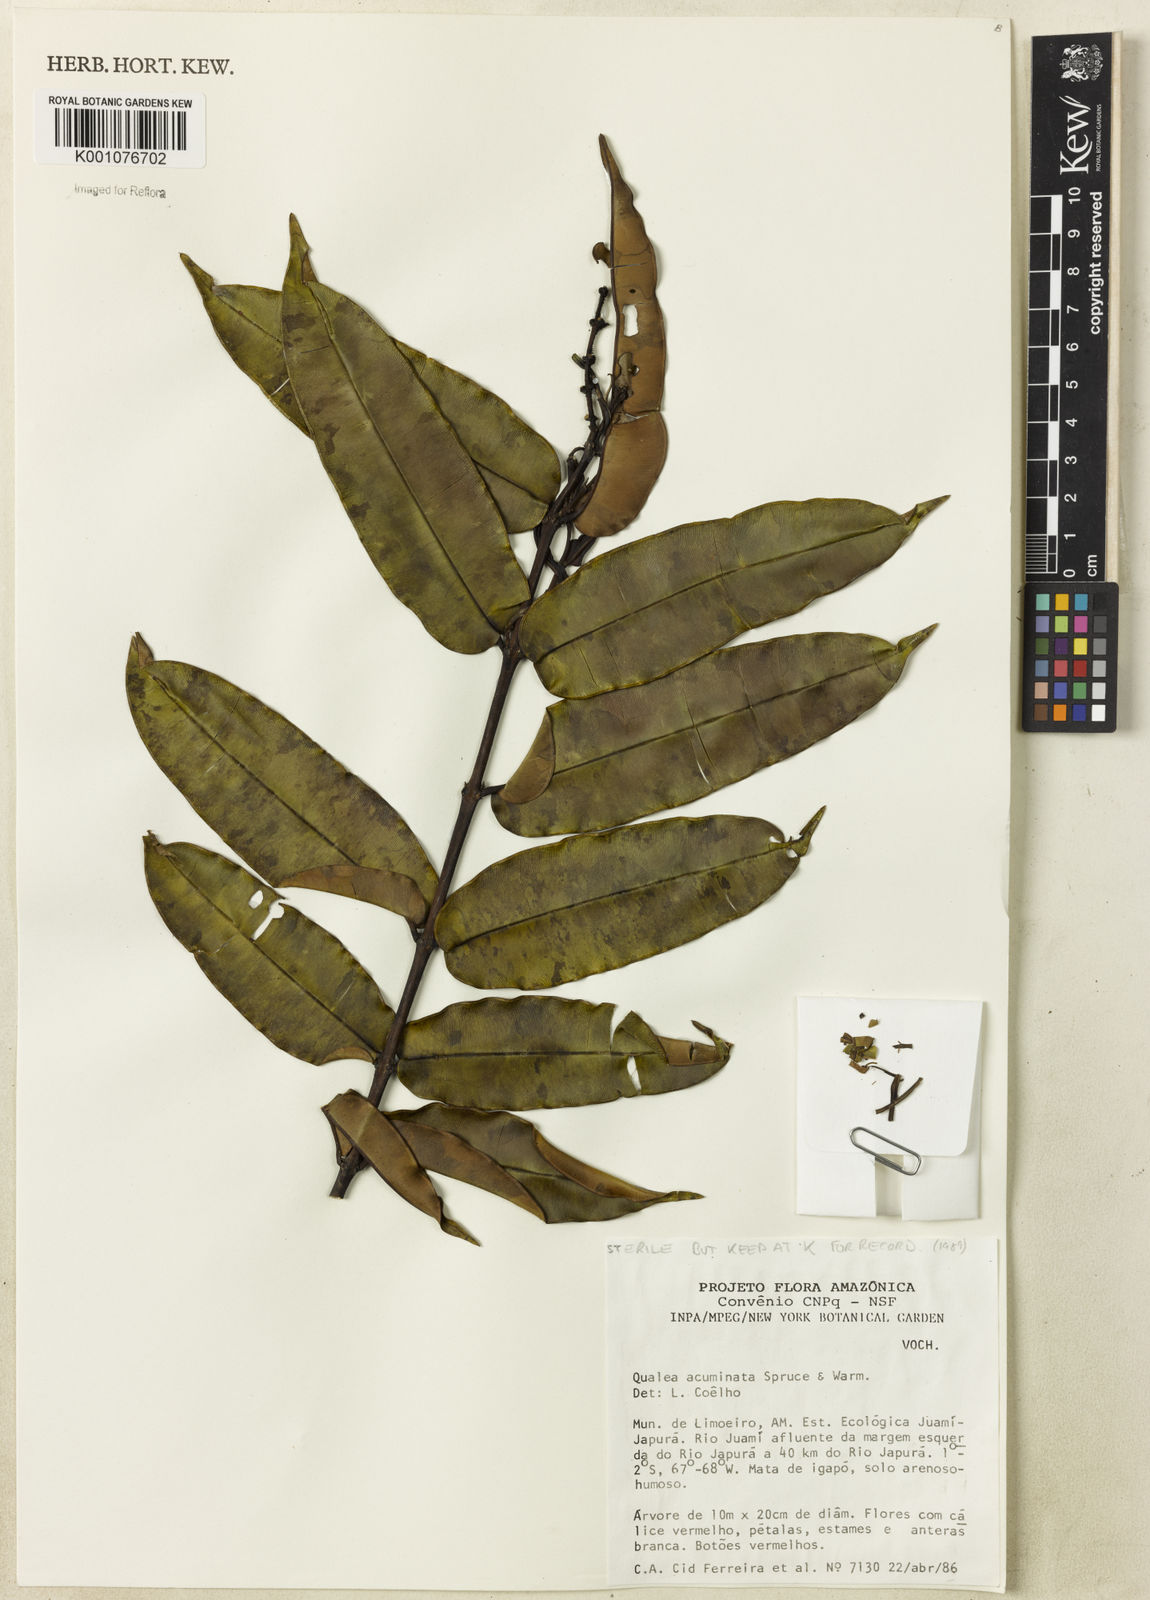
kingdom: Plantae
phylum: Tracheophyta
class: Magnoliopsida
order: Myrtales
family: Vochysiaceae
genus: Qualea
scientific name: Qualea acuminata
